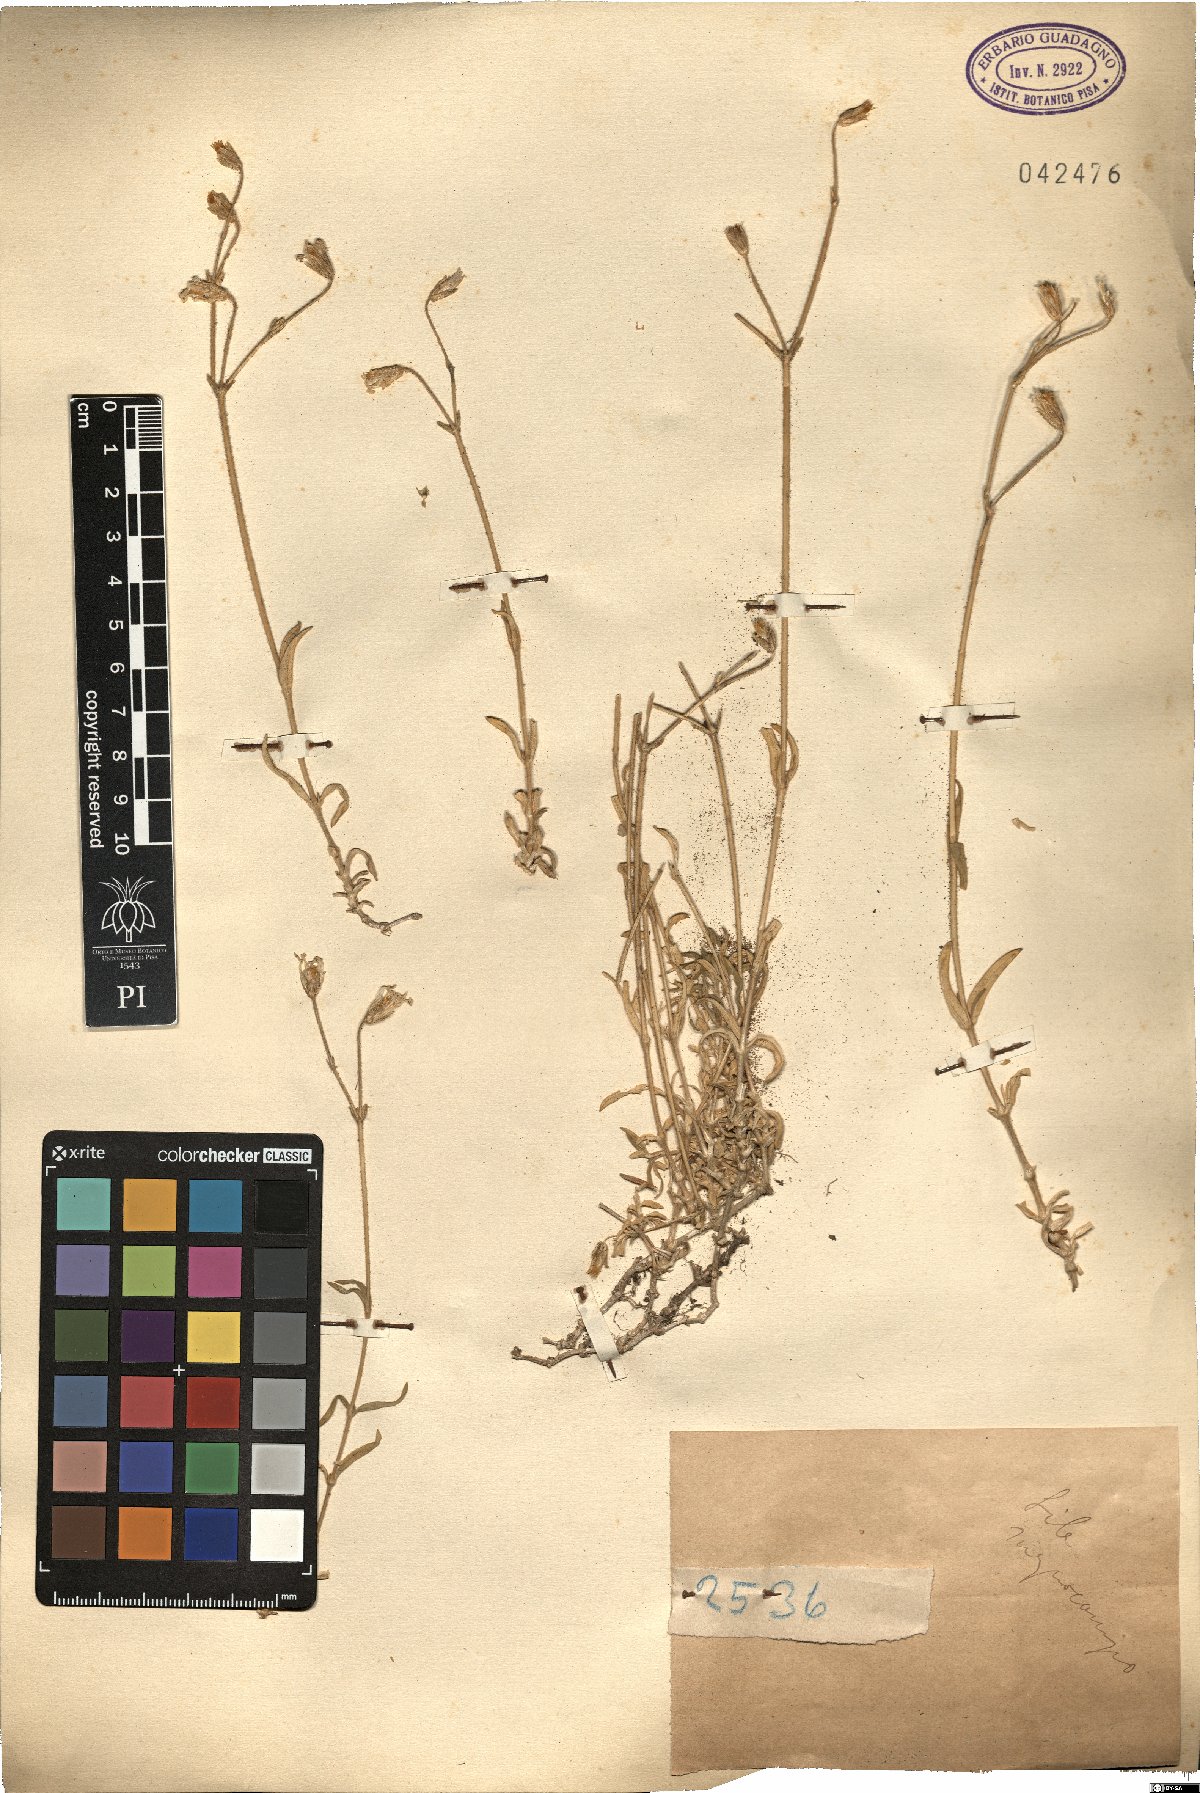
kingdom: Plantae
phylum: Tracheophyta
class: Magnoliopsida
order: Caryophyllales
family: Caryophyllaceae
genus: Cerastium
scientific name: Cerastium
